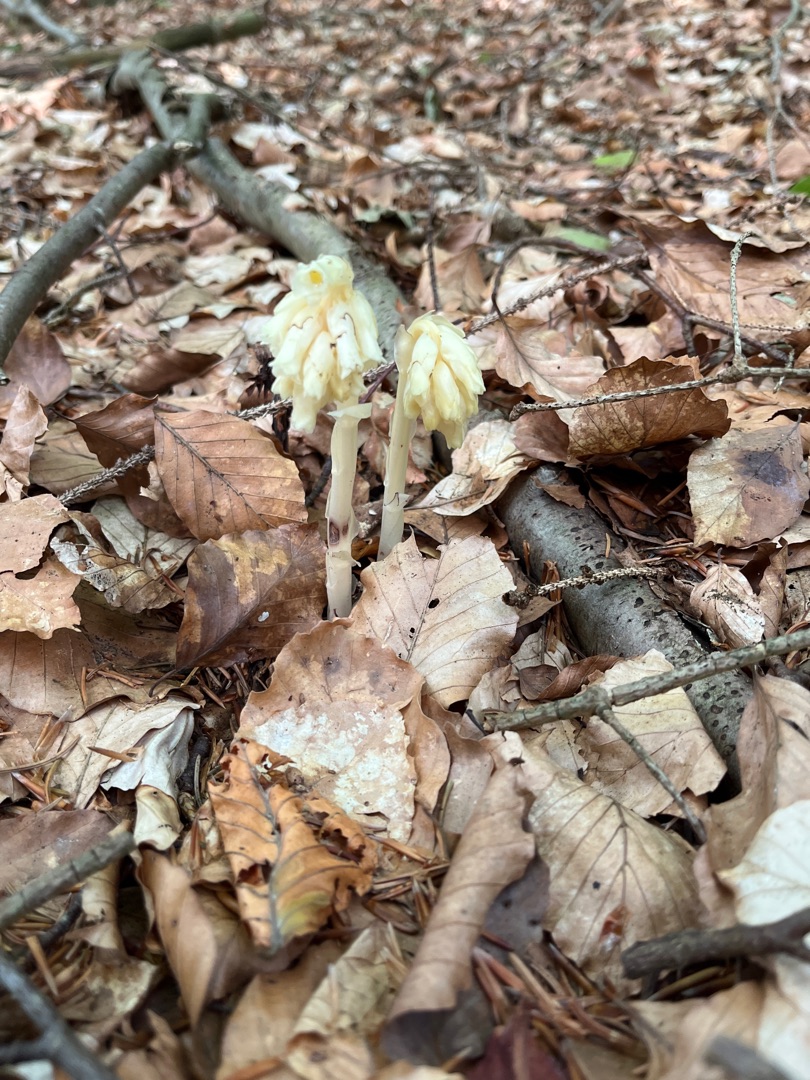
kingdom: Plantae
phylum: Tracheophyta
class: Magnoliopsida
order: Ericales
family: Ericaceae
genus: Hypopitys
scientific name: Hypopitys monotropa
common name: Snylterod
